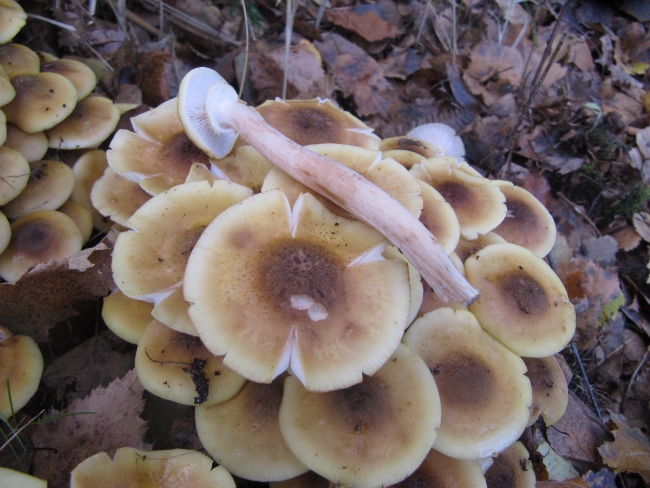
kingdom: Fungi
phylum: Basidiomycota
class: Agaricomycetes
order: Agaricales
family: Physalacriaceae
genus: Armillaria
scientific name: Armillaria mellea
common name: ægte honningsvamp
